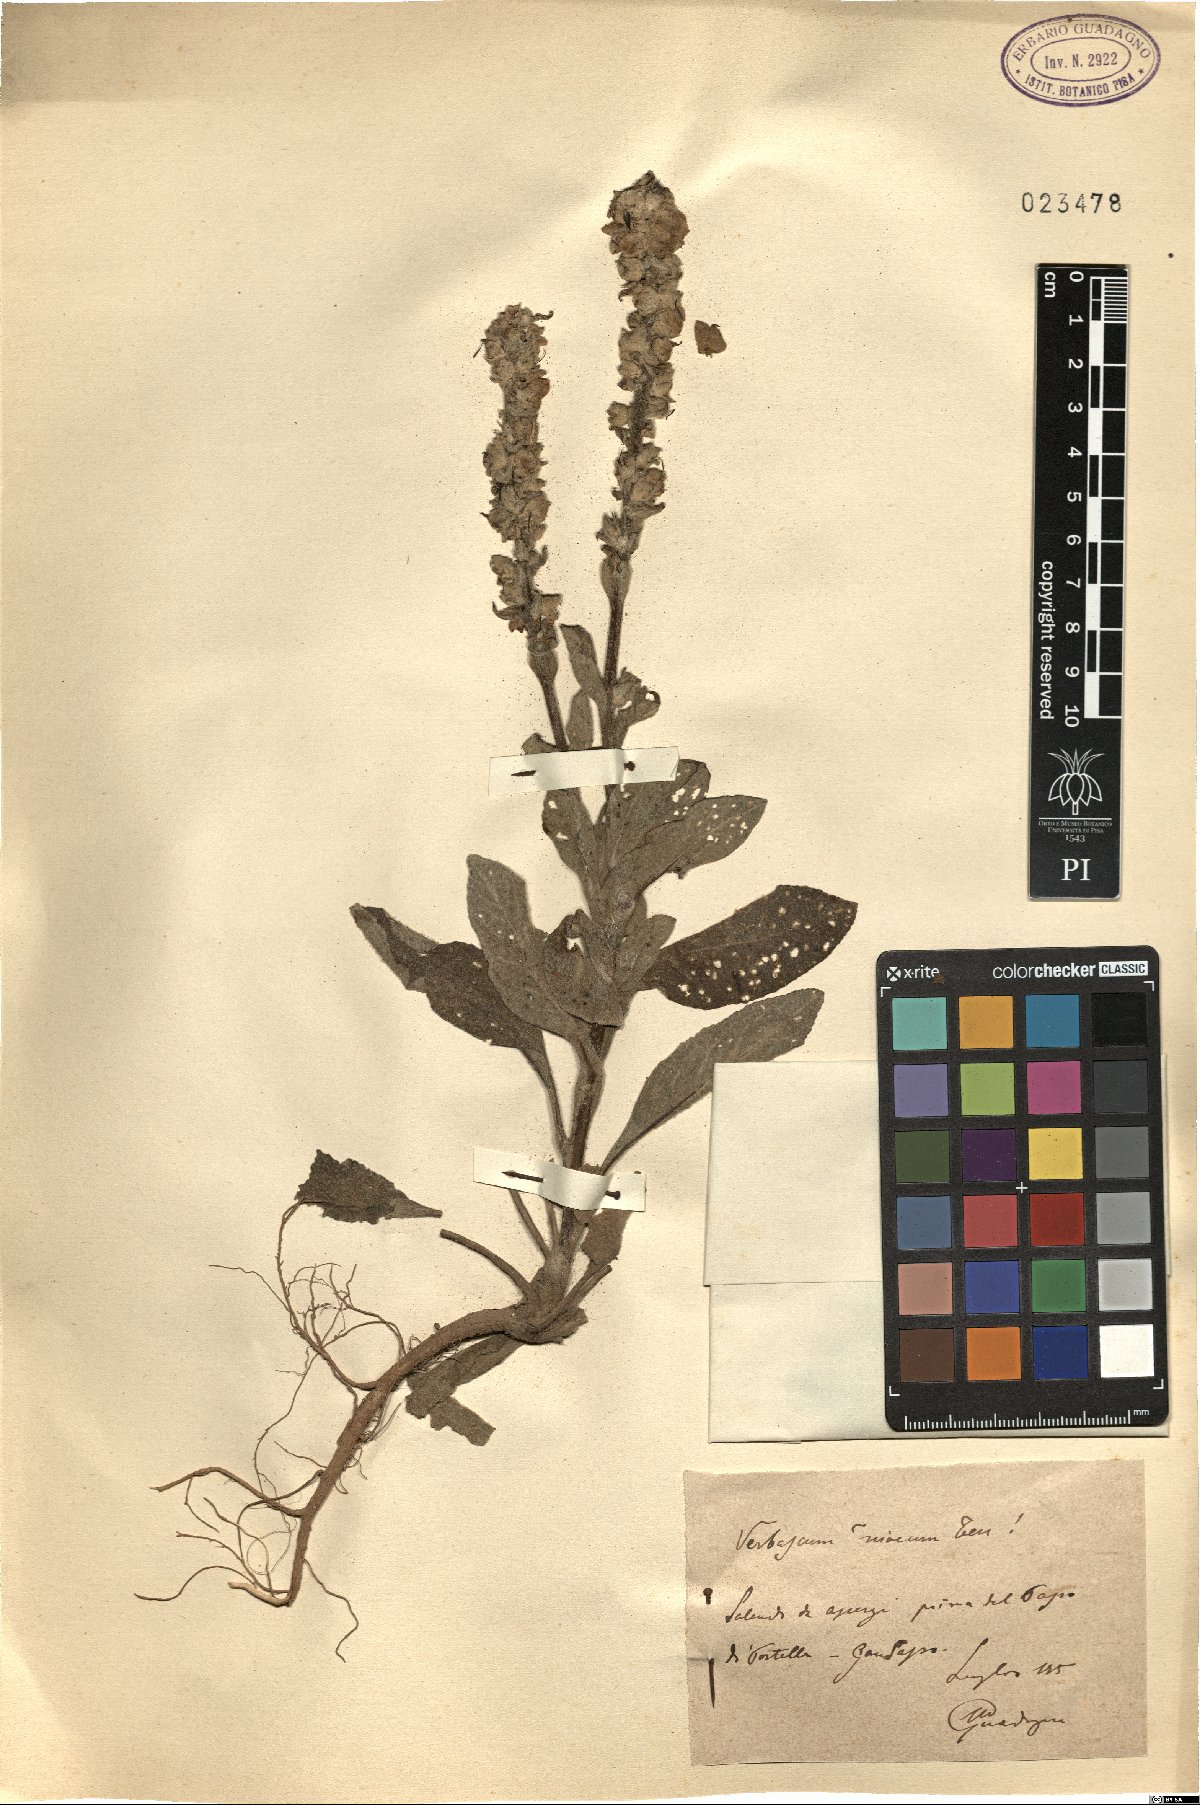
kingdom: Plantae
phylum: Tracheophyta
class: Magnoliopsida
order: Lamiales
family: Scrophulariaceae
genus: Verbascum
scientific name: Verbascum niveum
